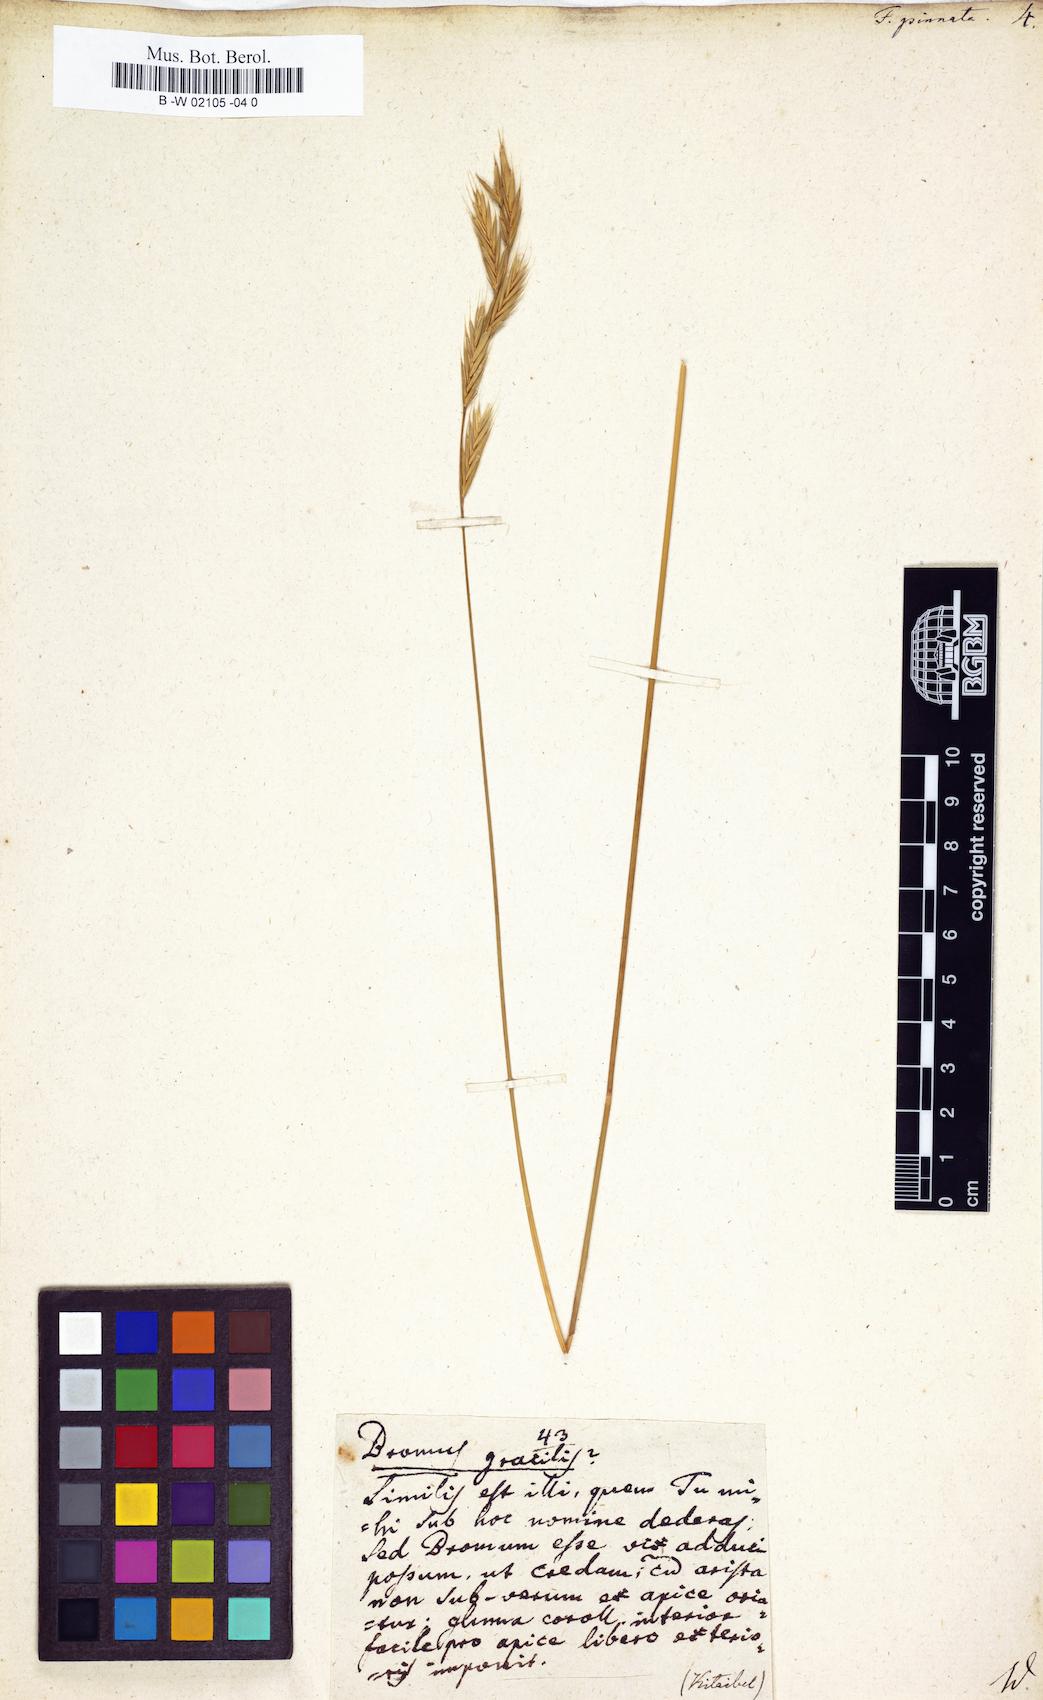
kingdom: Plantae
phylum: Tracheophyta
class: Liliopsida
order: Poales
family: Poaceae
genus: Brachypodium
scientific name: Brachypodium pinnatum
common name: Tor grass
